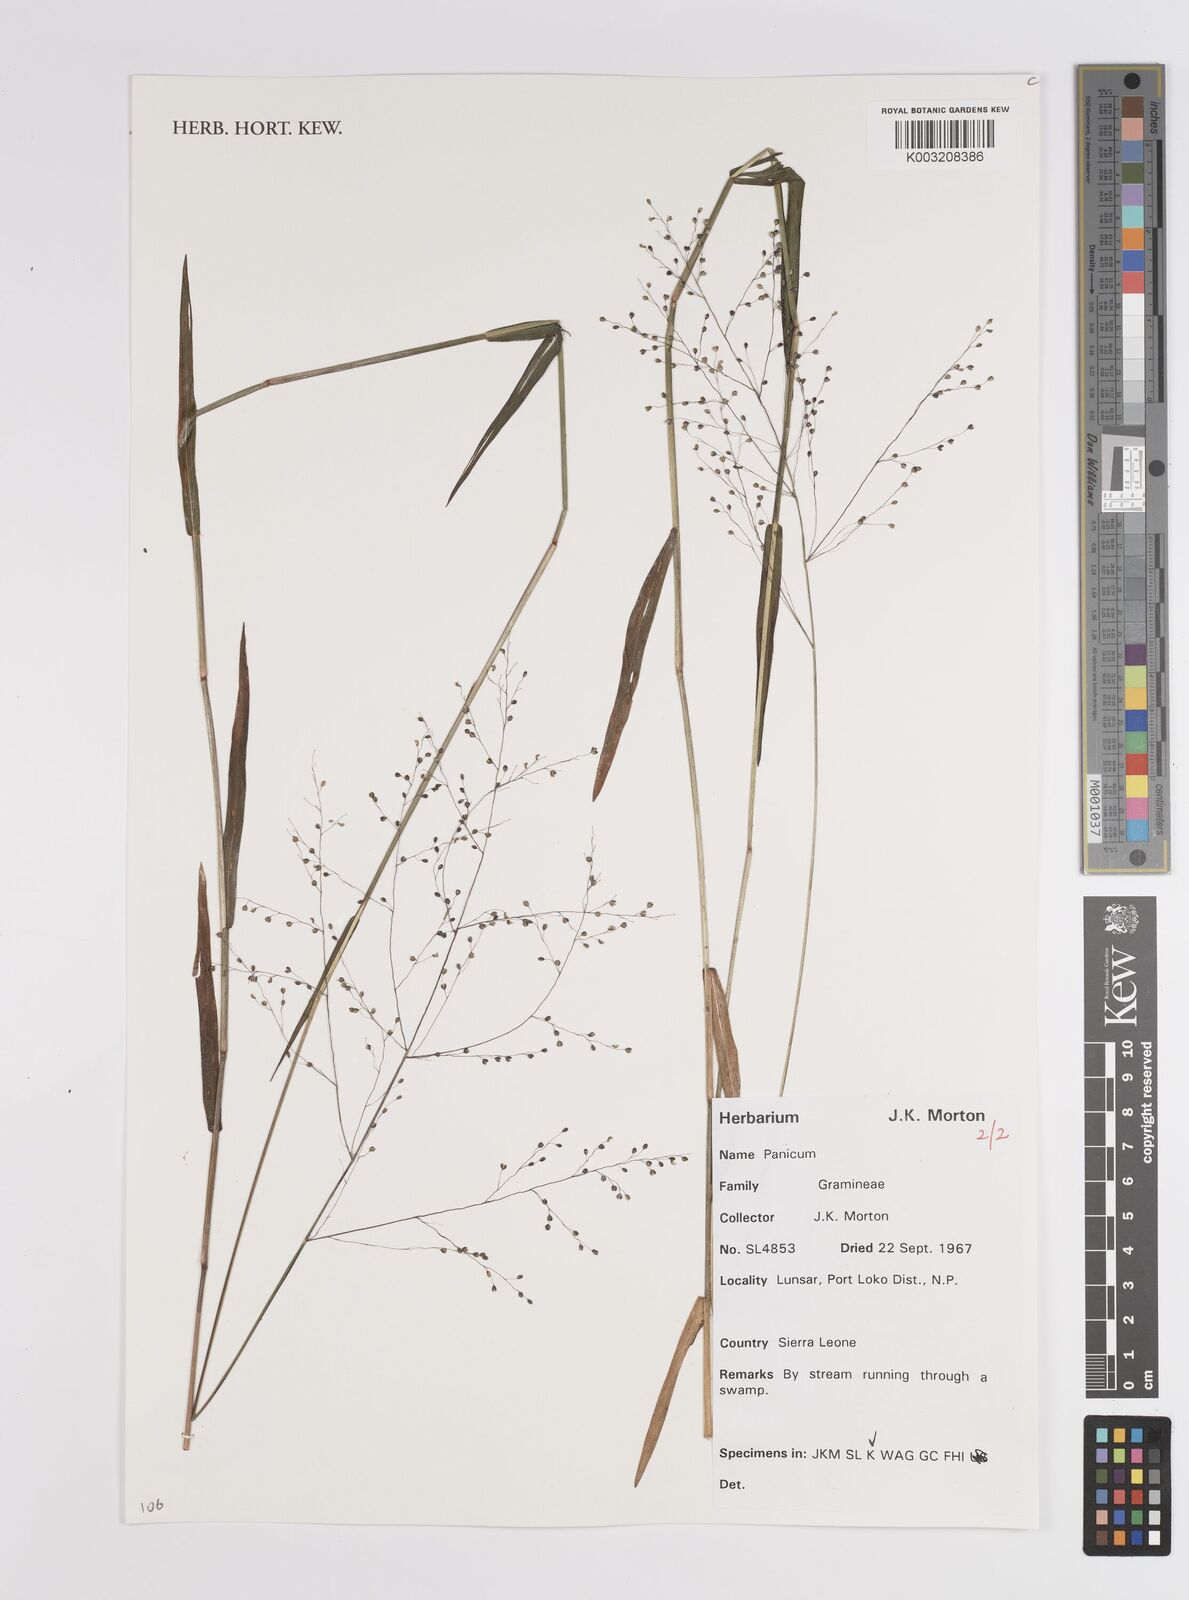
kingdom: Plantae
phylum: Tracheophyta
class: Liliopsida
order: Poales
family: Poaceae
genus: Panicum
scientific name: Panicum
